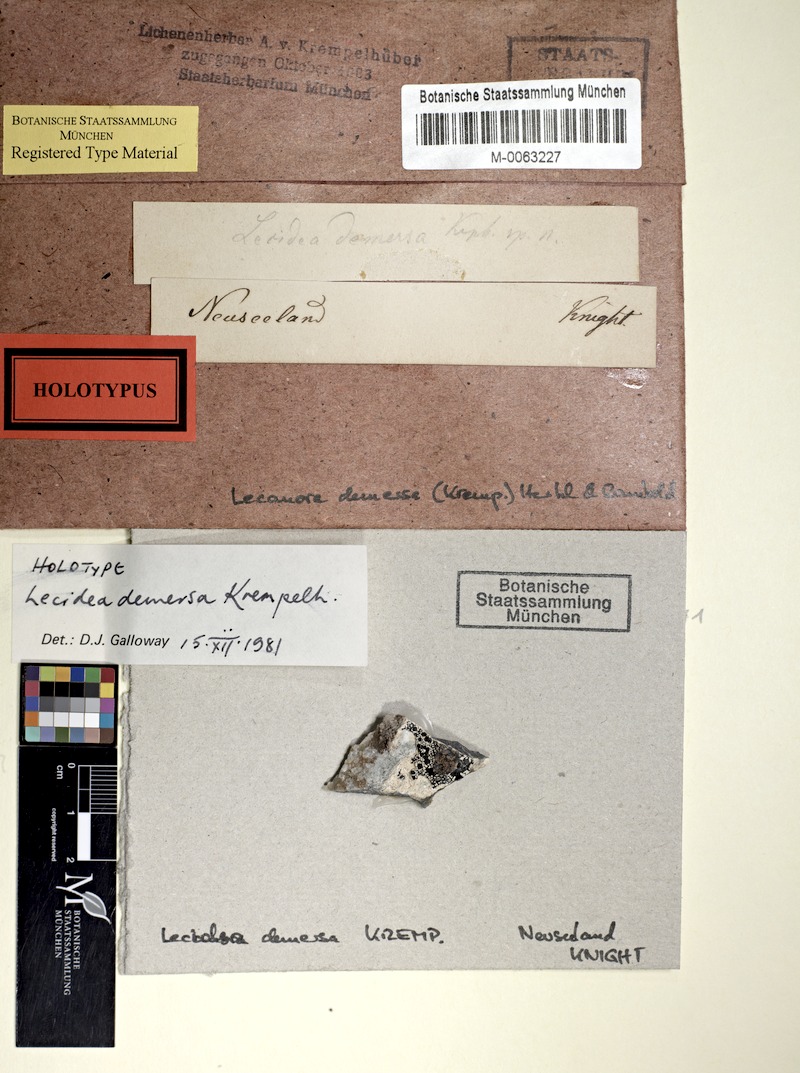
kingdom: Fungi
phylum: Ascomycota
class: Lecanoromycetes
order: Lecanorales
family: Lecanoraceae
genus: Diomedella
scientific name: Diomedella demersa
